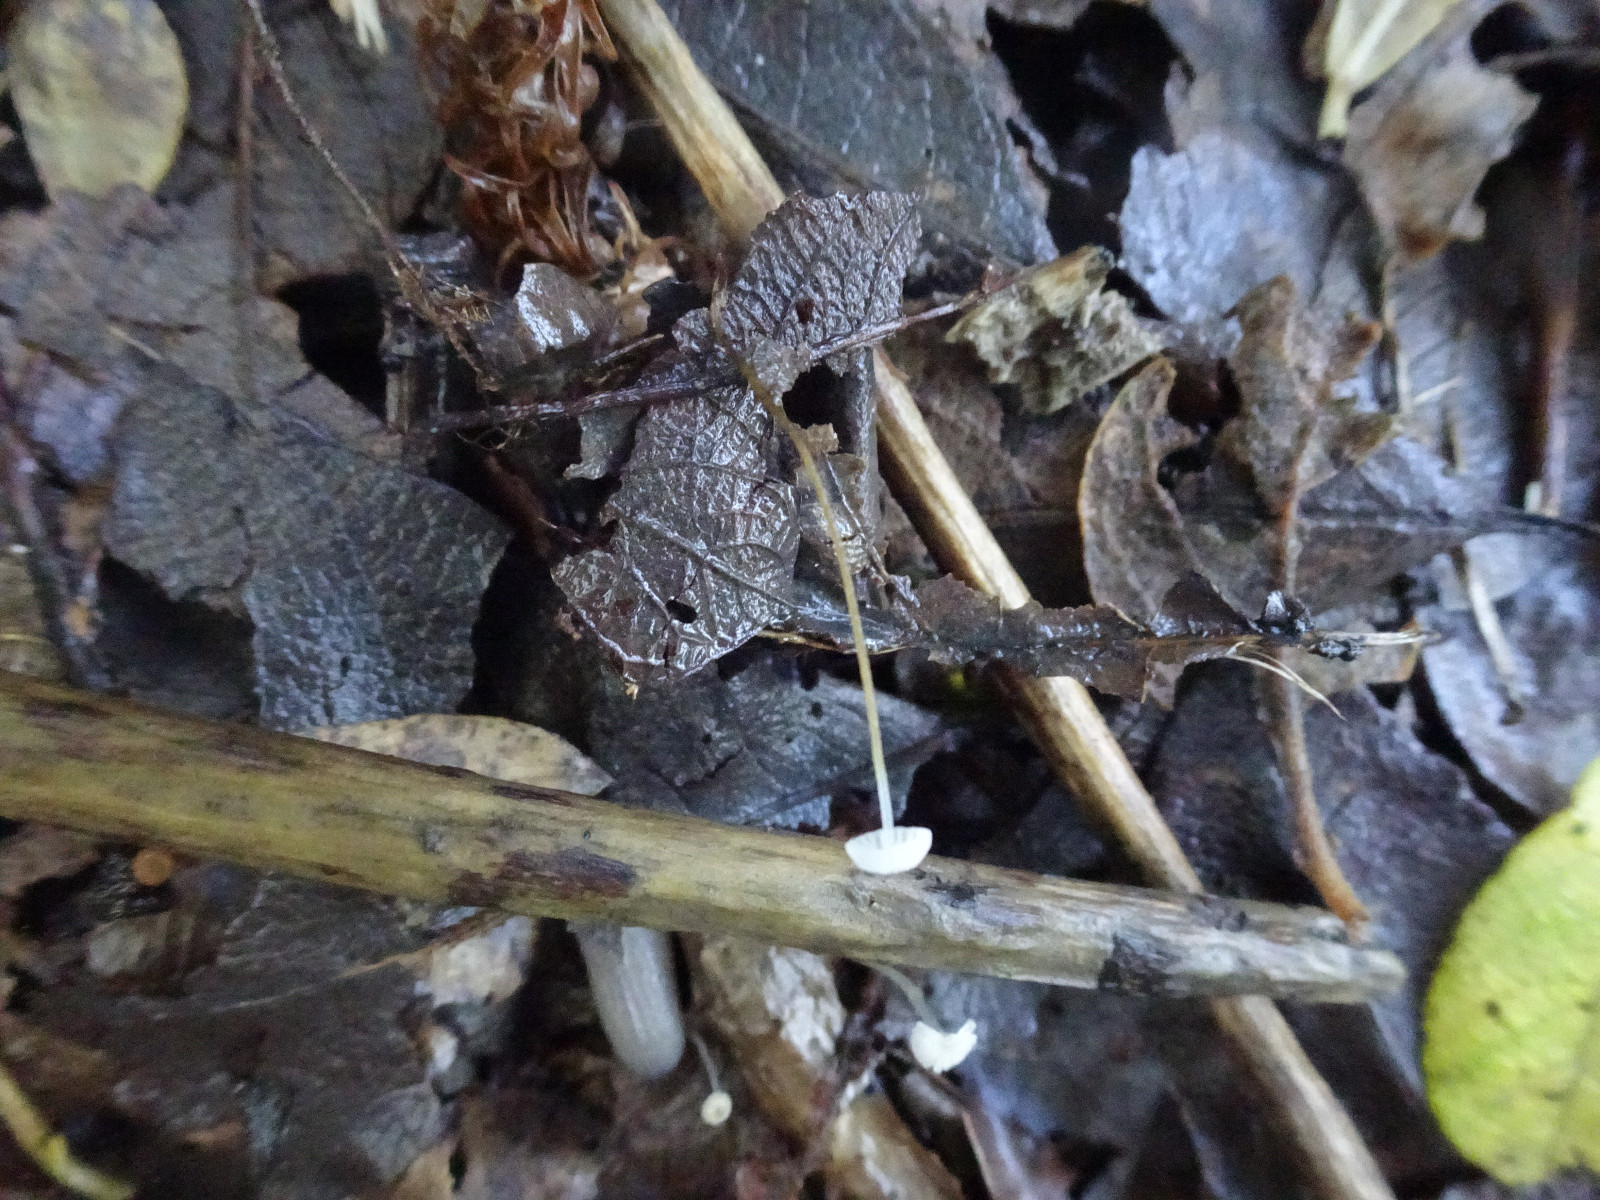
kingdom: Fungi
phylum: Basidiomycota
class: Agaricomycetes
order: Agaricales
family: Porotheleaceae
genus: Phloeomana
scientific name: Phloeomana speirea
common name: kvist-huesvamp
